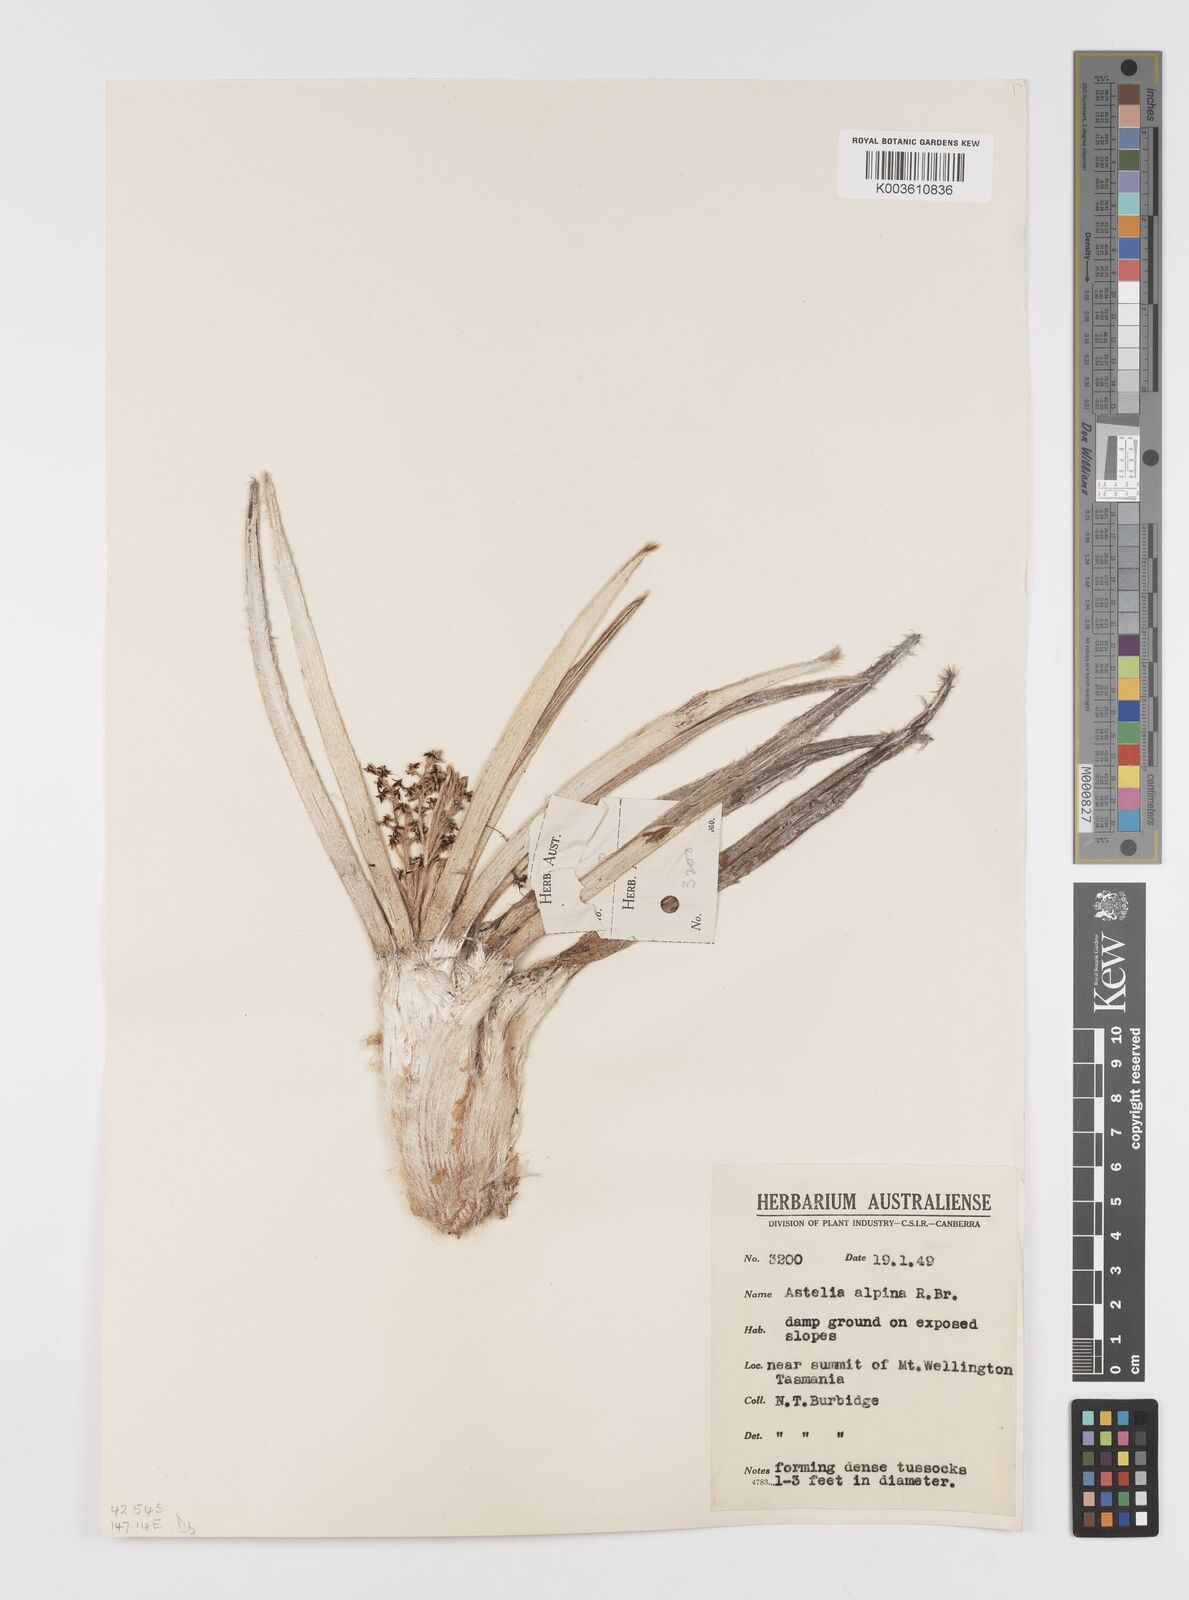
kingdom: Plantae
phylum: Tracheophyta
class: Liliopsida
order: Asparagales
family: Asteliaceae
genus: Astelia
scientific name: Astelia alpina
